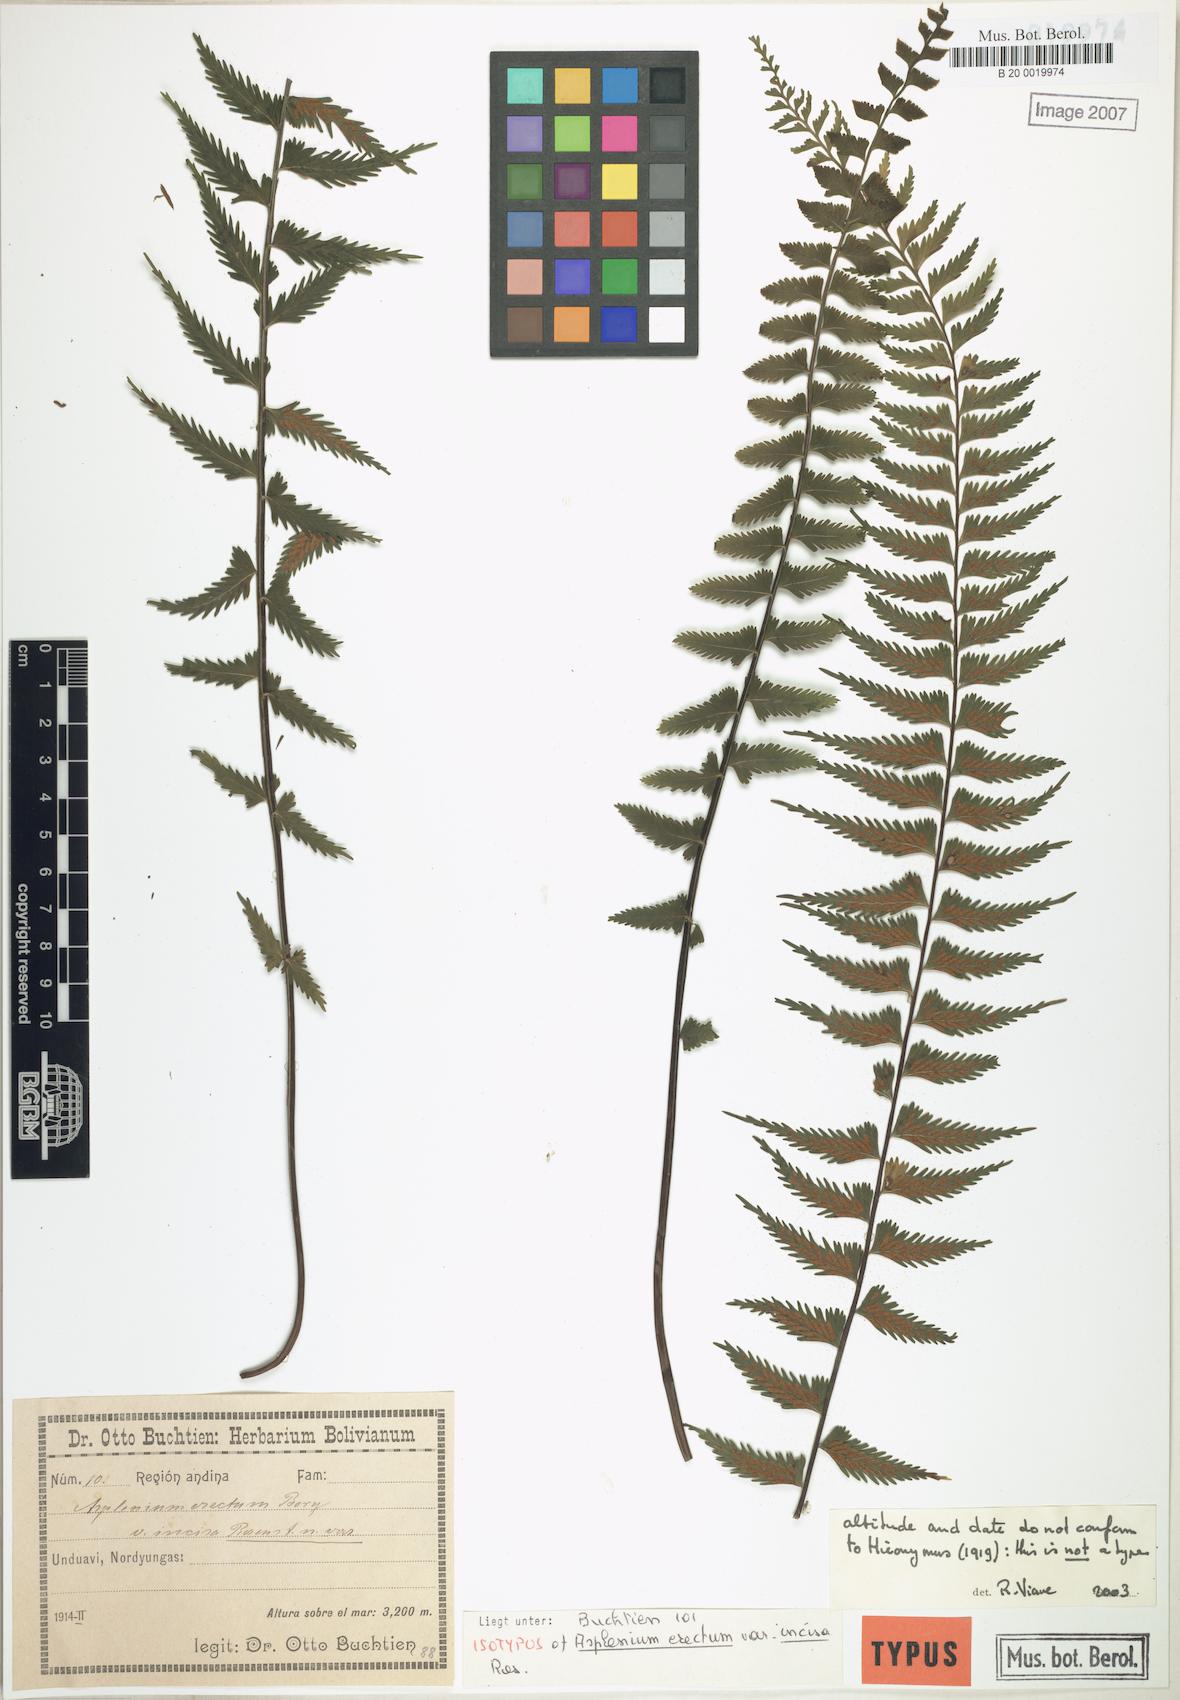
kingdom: Plantae
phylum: Tracheophyta
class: Polypodiopsida
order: Polypodiales
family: Aspleniaceae
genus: Asplenium
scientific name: Asplenium harpeodes
